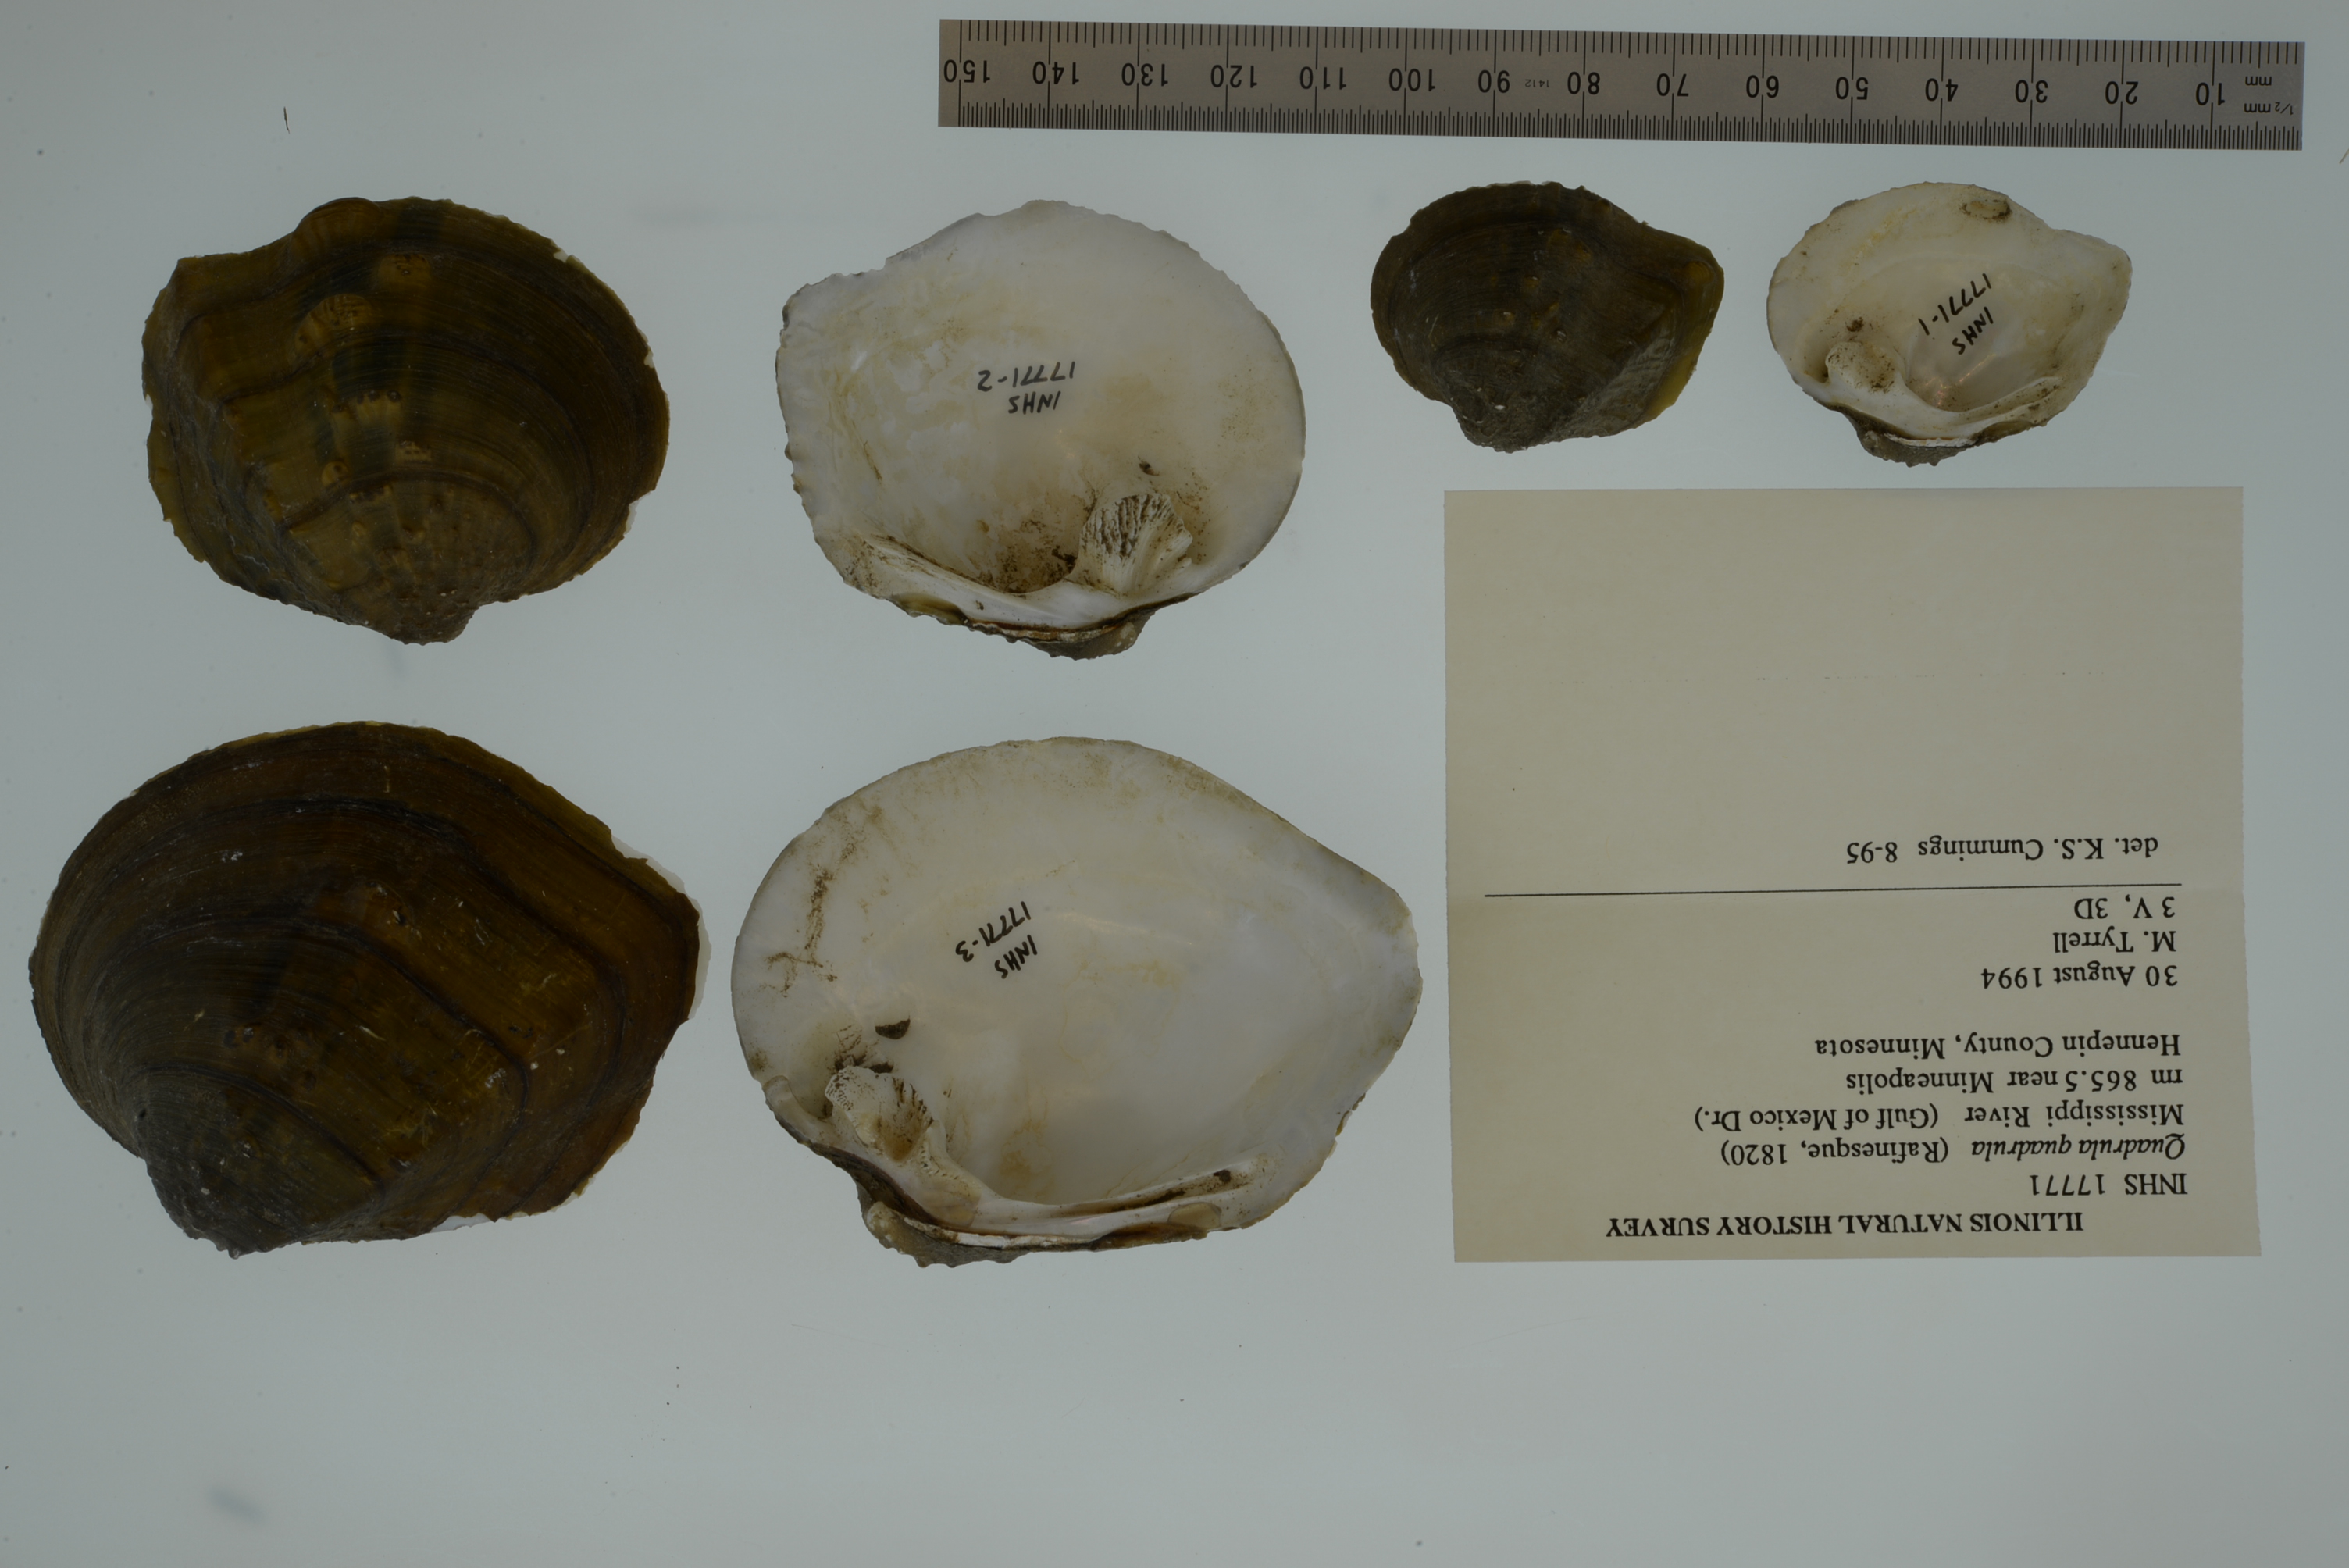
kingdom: Animalia
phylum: Mollusca
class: Bivalvia
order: Unionida
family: Unionidae
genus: Quadrula
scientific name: Quadrula quadrula
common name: Mapleleaf
